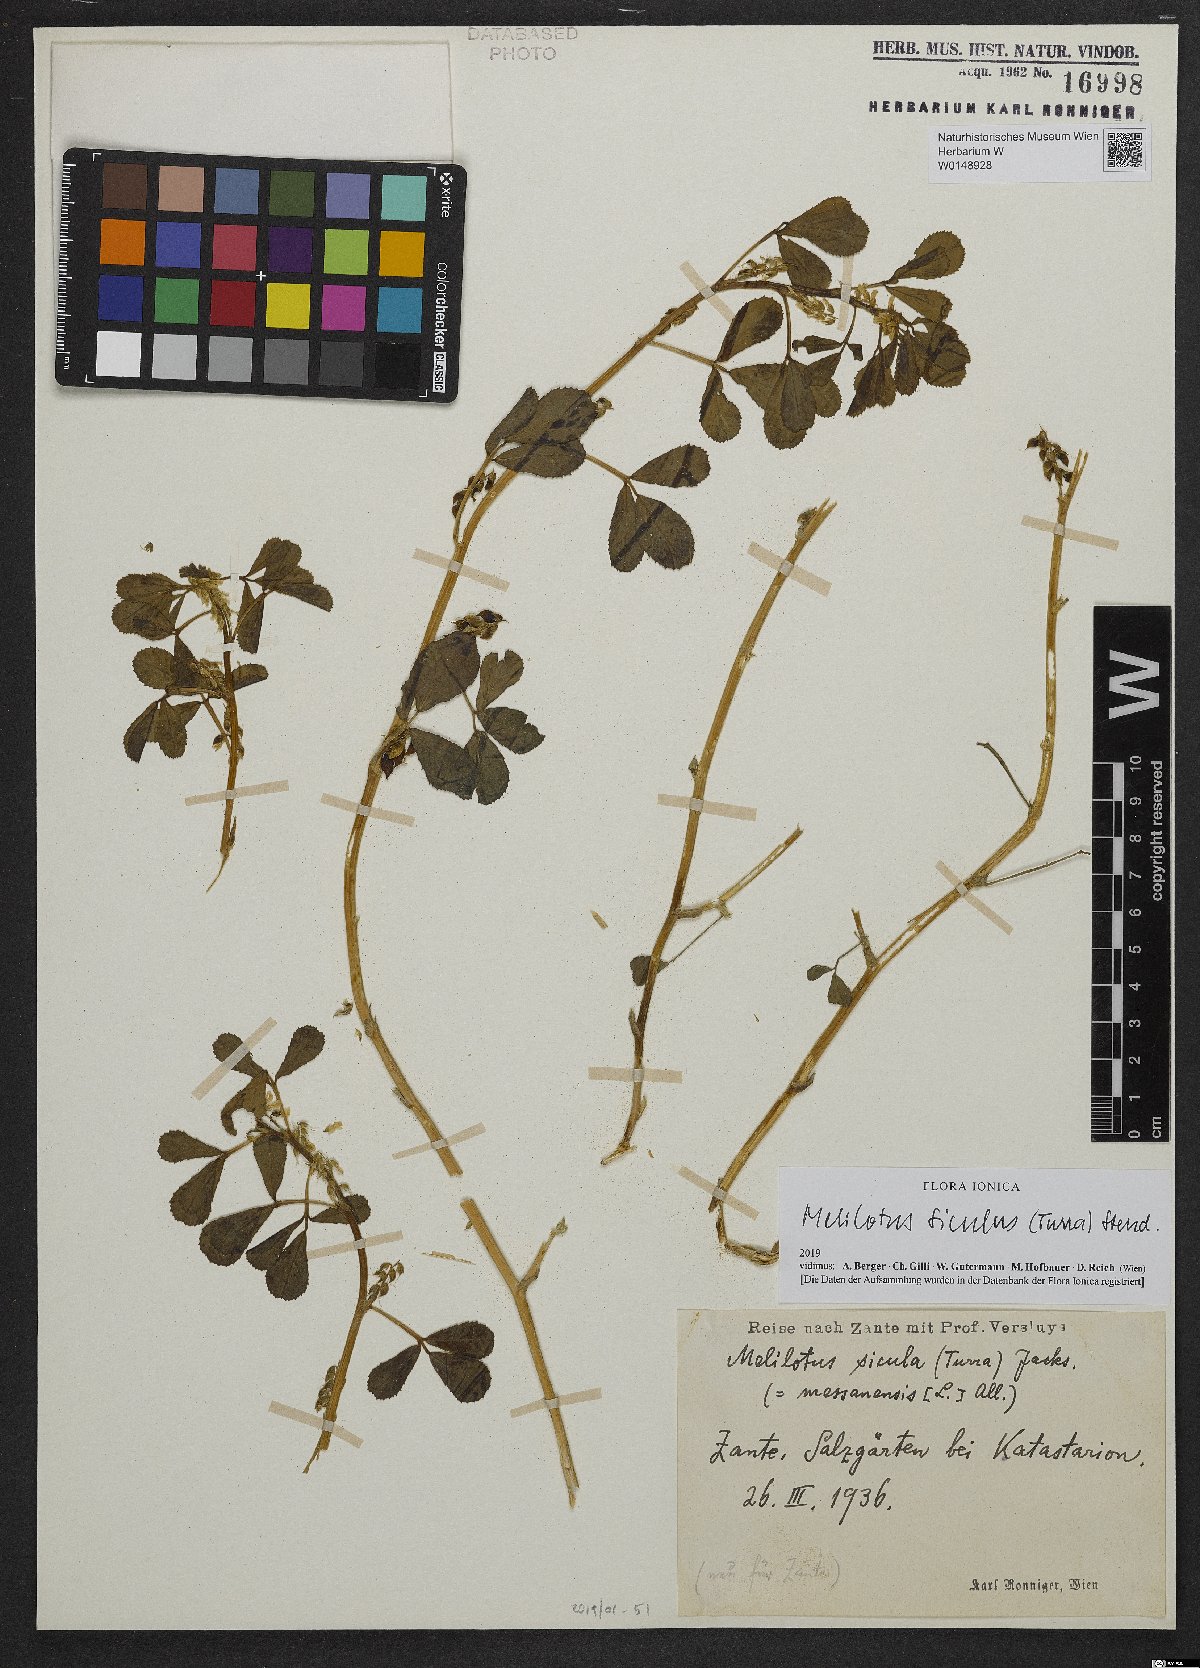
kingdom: Plantae
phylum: Tracheophyta
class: Magnoliopsida
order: Fabales
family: Fabaceae
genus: Melilotus
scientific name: Melilotus siculus
